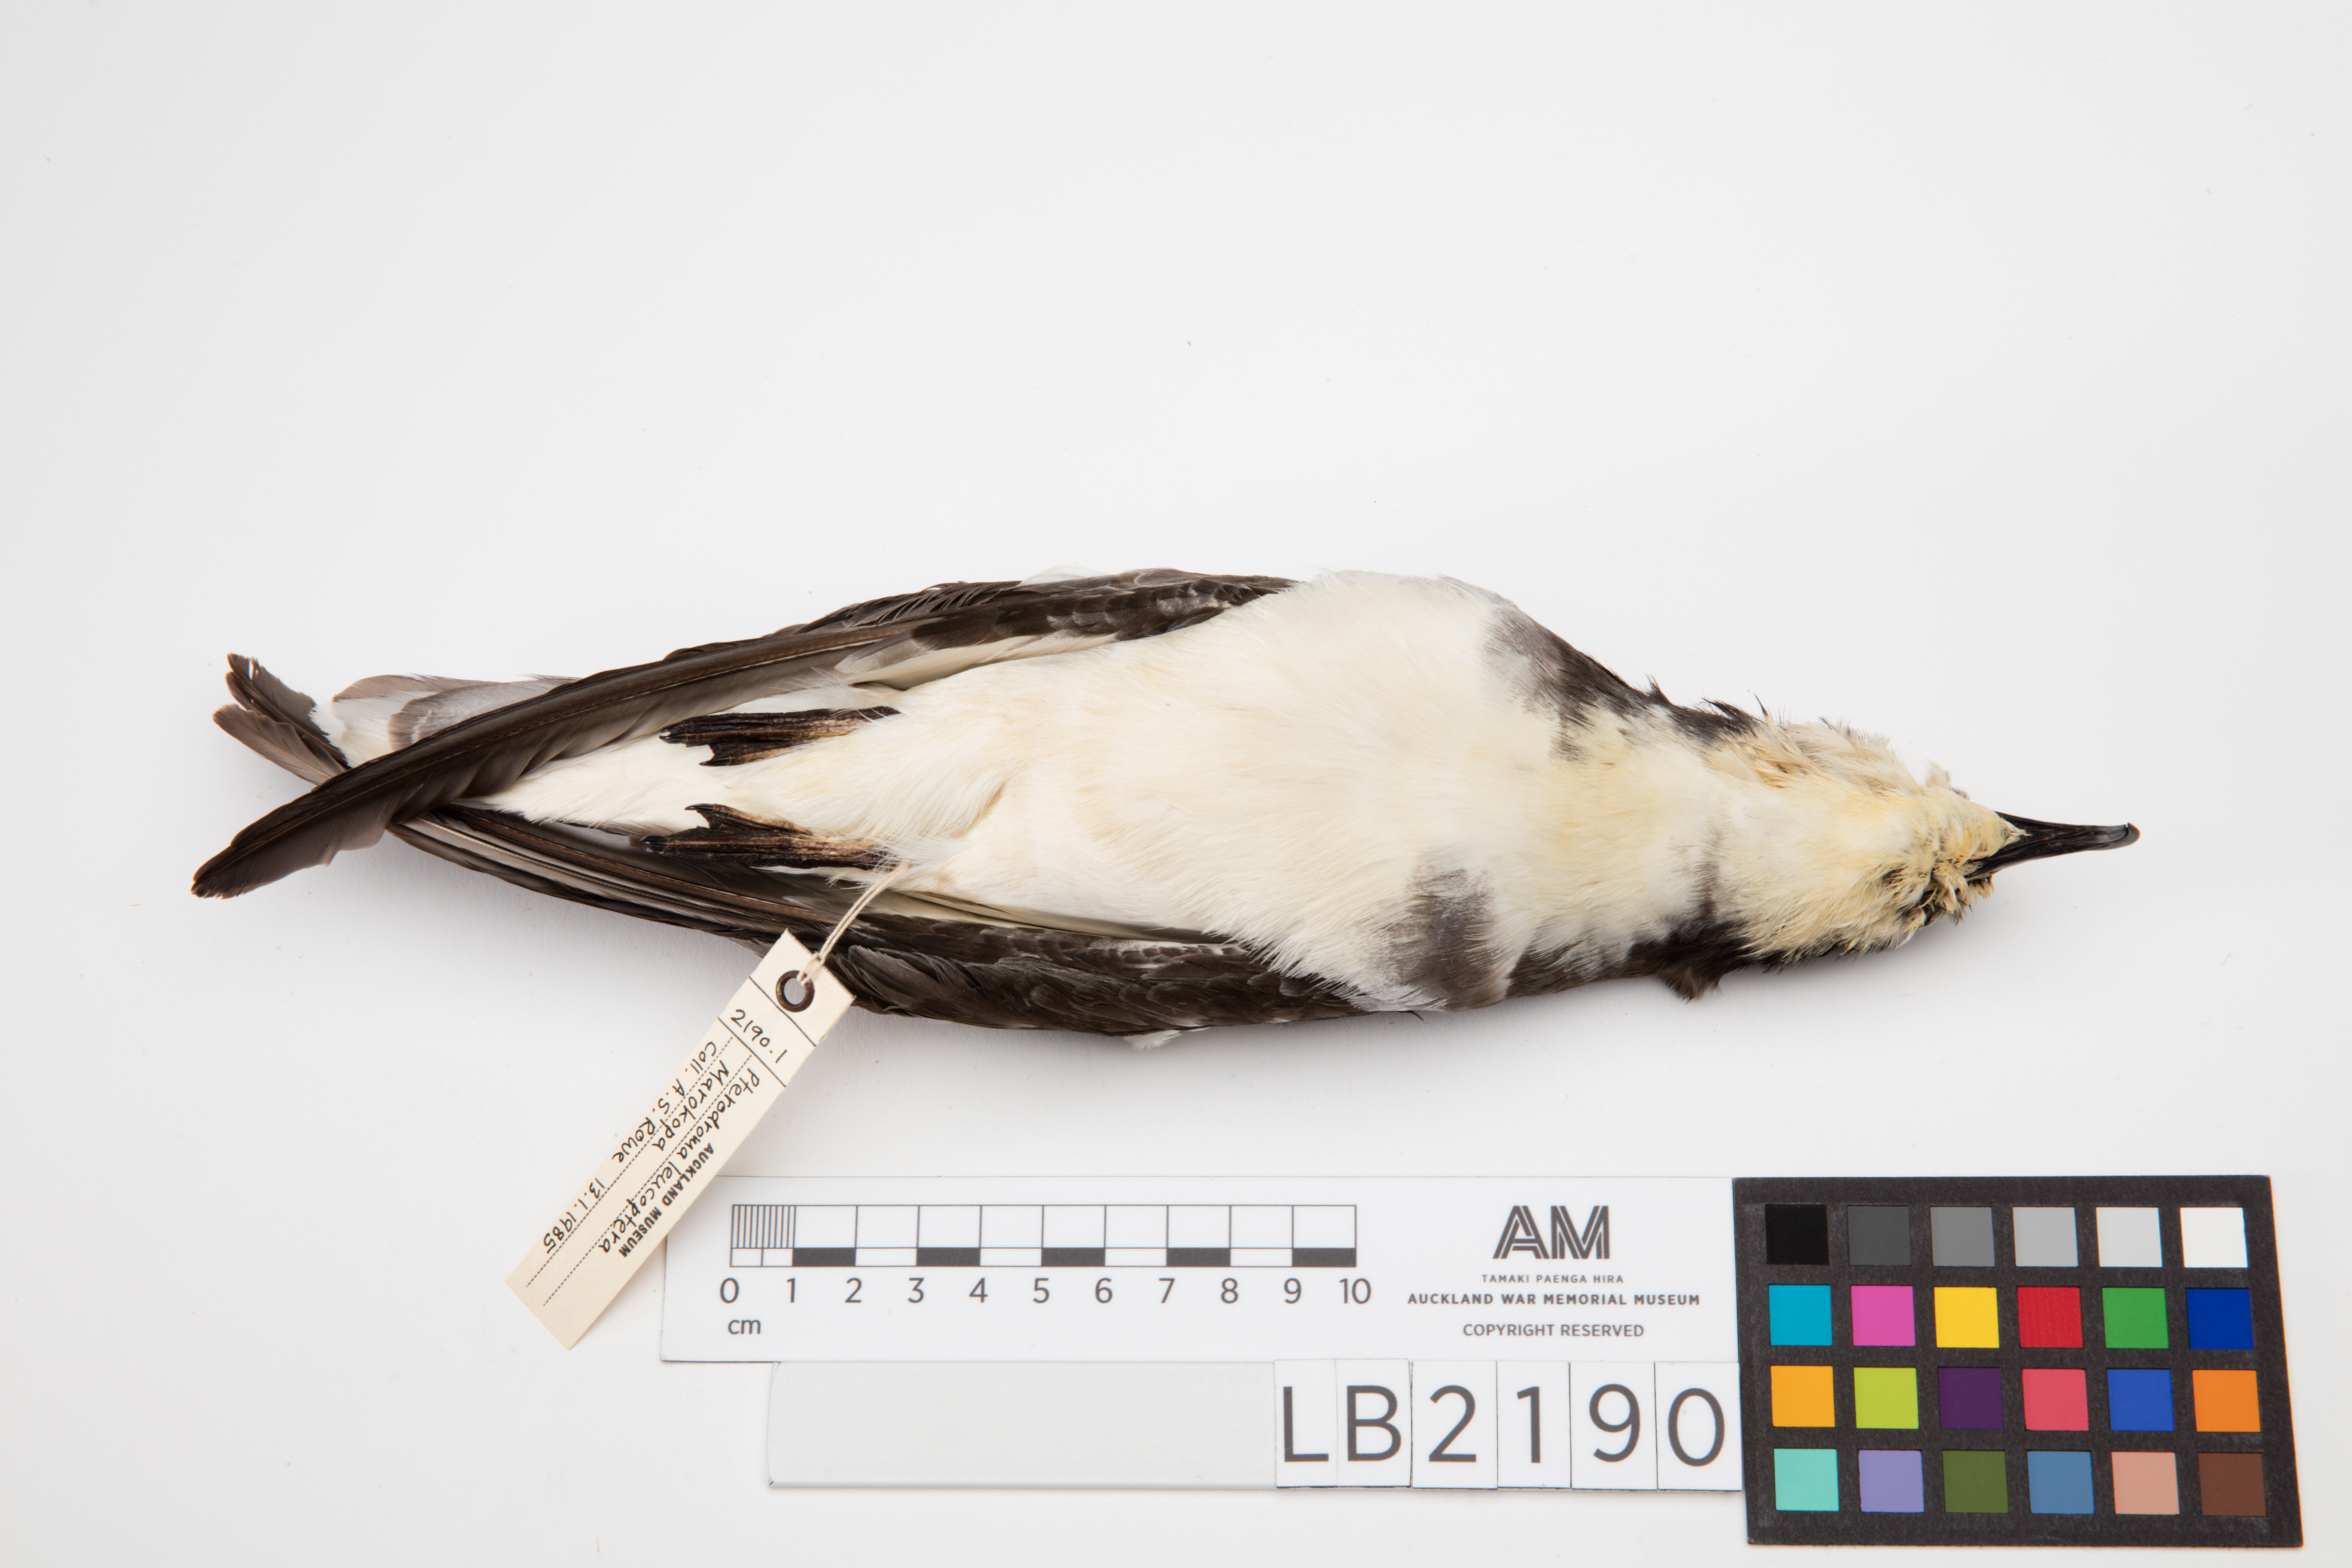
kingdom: Animalia
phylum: Chordata
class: Aves
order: Procellariiformes
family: Procellariidae
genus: Pterodroma
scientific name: Pterodroma leucoptera
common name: Gould's petrel
